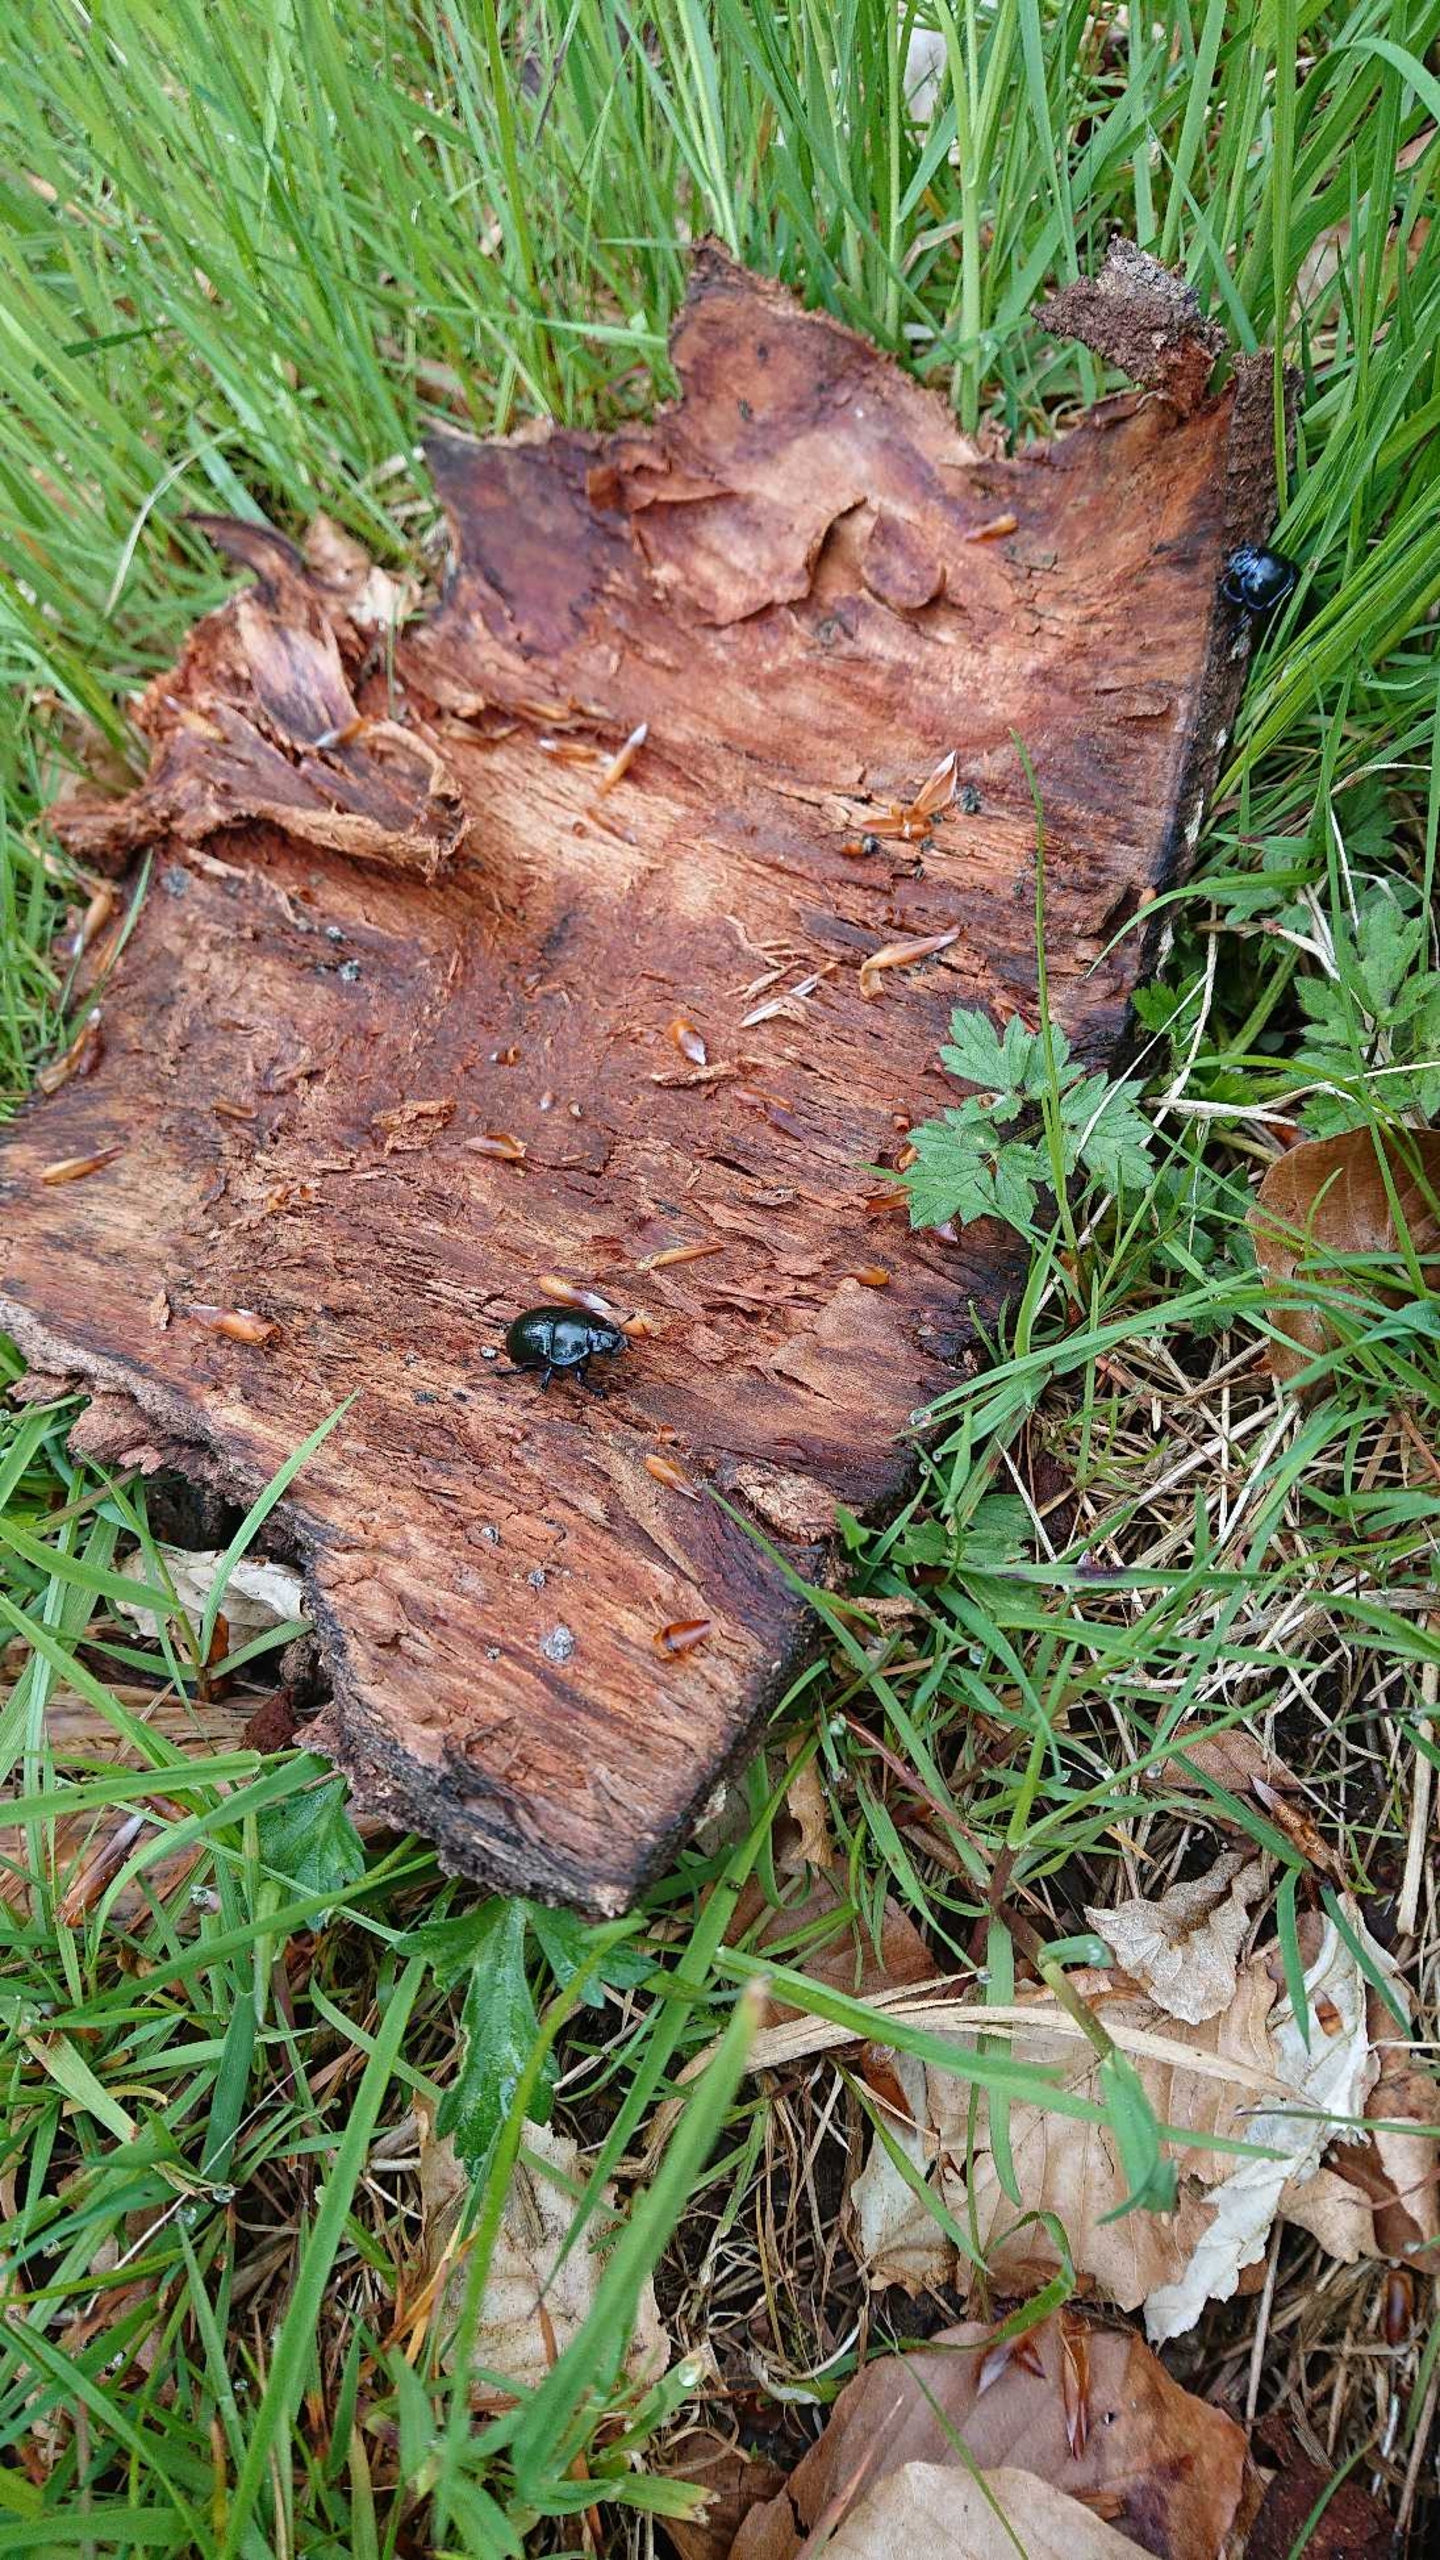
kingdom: Animalia
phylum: Arthropoda
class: Insecta
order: Coleoptera
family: Geotrupidae
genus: Anoplotrupes
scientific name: Anoplotrupes stercorosus
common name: Skovskarnbasse
